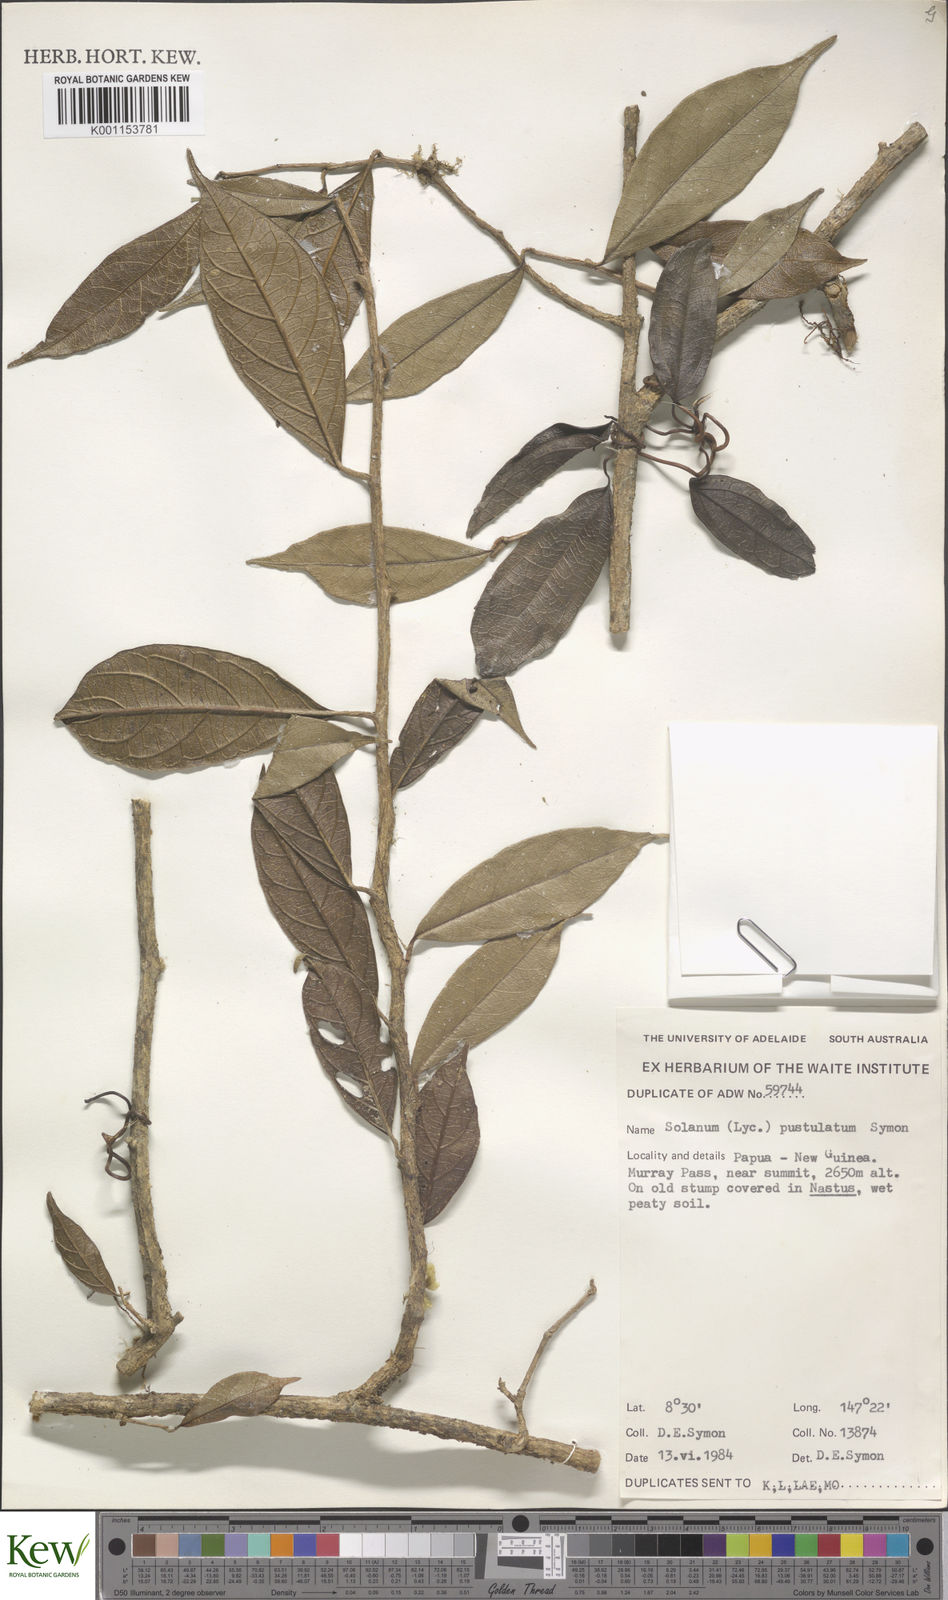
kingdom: Plantae
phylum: Tracheophyta
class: Magnoliopsida
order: Solanales
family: Solanaceae
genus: Lycianthes
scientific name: Lycianthes rostellata
